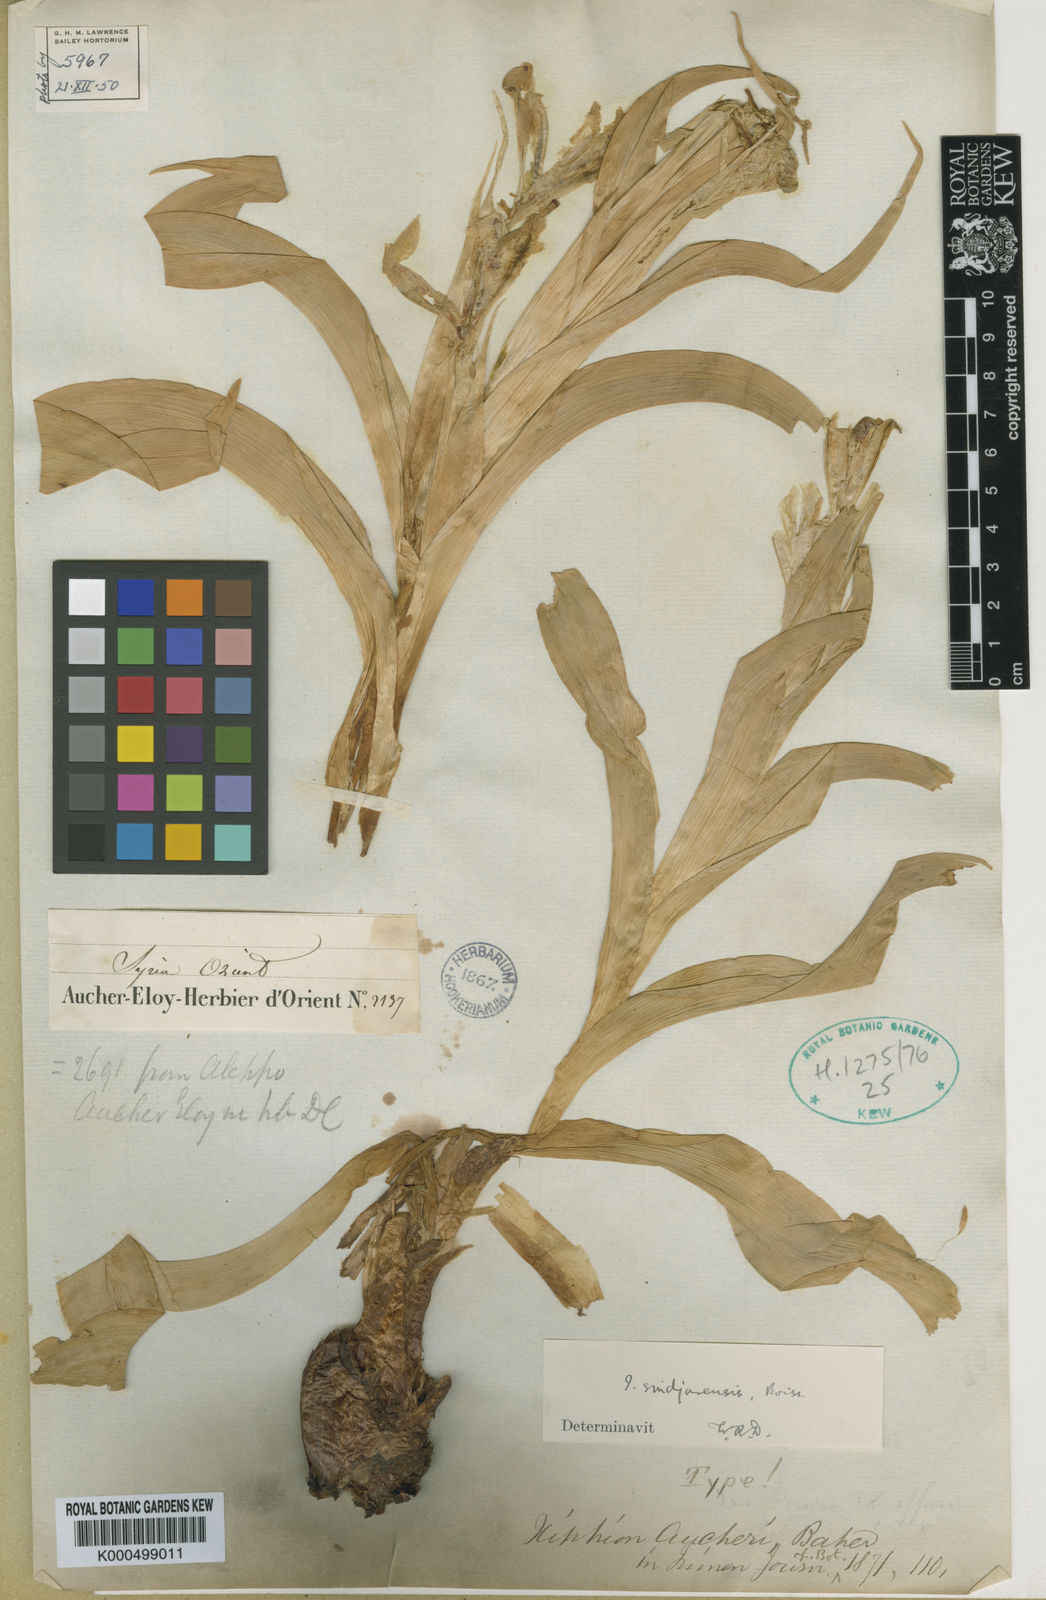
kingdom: Plantae
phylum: Tracheophyta
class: Liliopsida
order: Asparagales
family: Iridaceae
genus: Iris
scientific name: Iris aucheri
